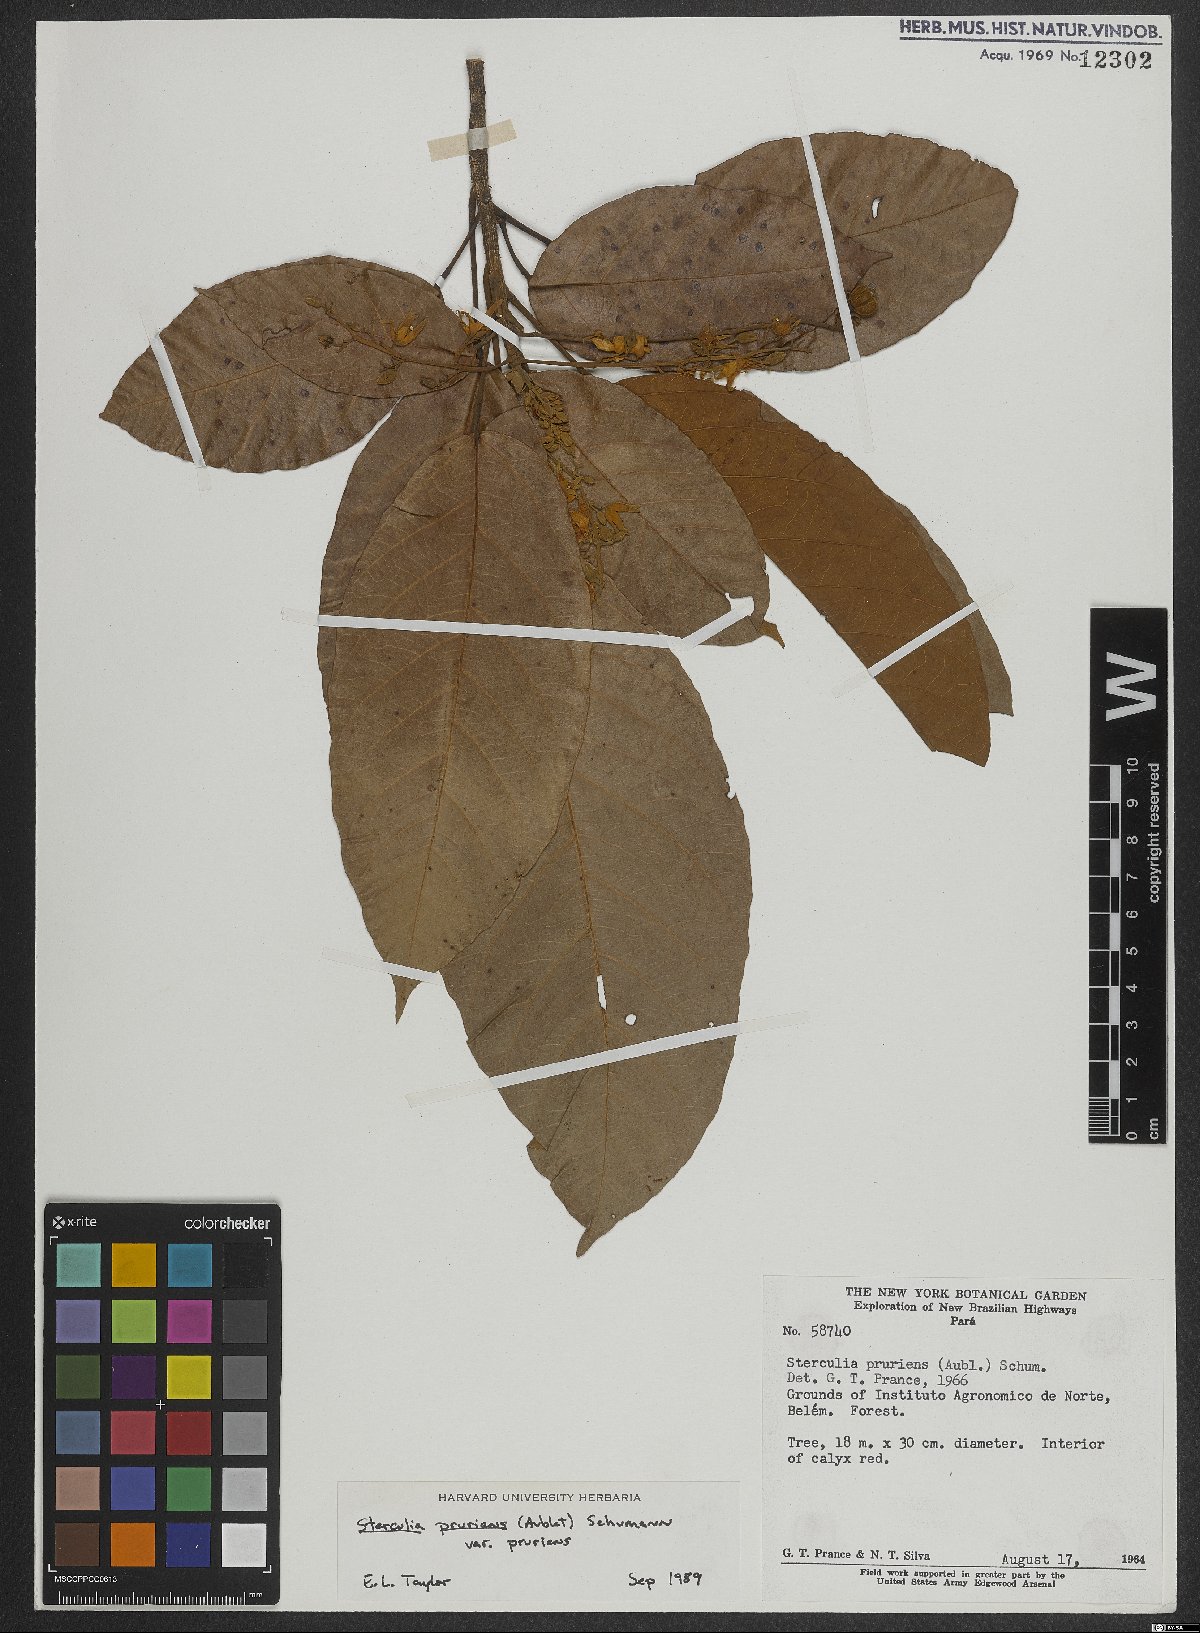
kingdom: Plantae
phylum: Tracheophyta
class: Magnoliopsida
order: Malvales
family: Malvaceae
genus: Sterculia
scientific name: Sterculia pruriens
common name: Grand mahot
